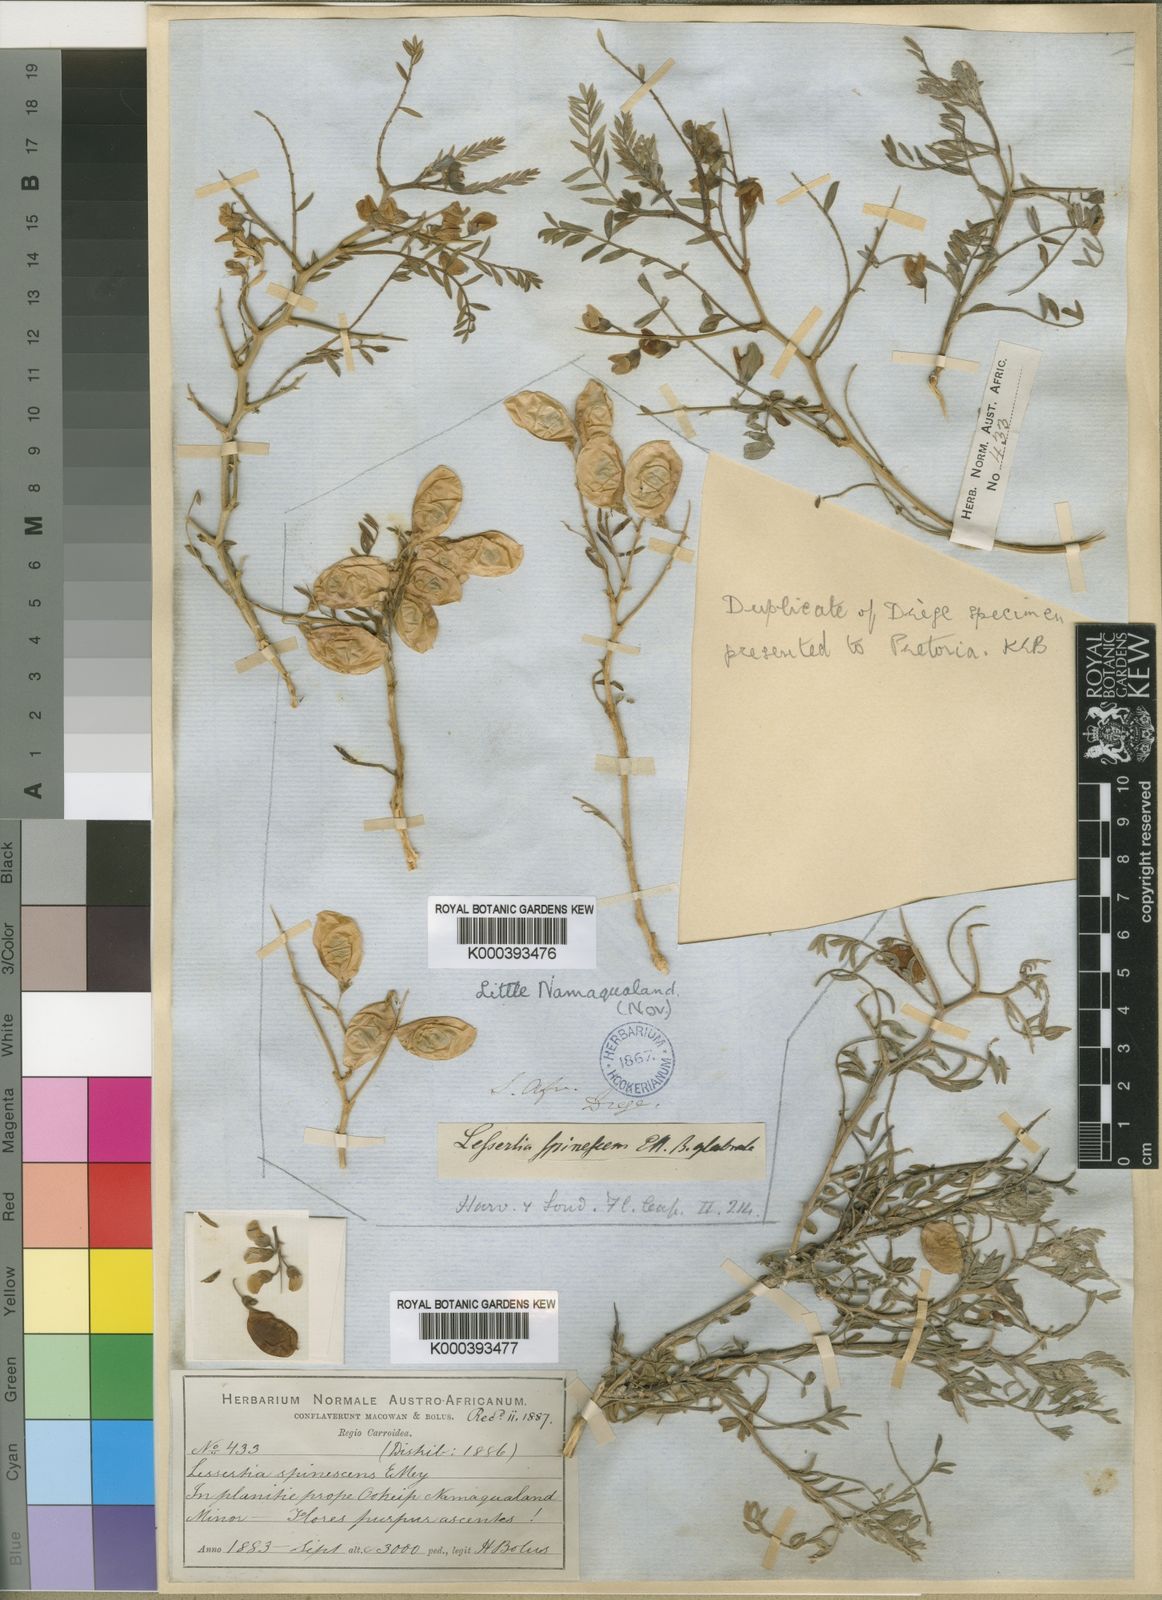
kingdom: Plantae
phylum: Tracheophyta
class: Magnoliopsida
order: Fabales
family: Fabaceae
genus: Lessertia
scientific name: Lessertia spinescens
